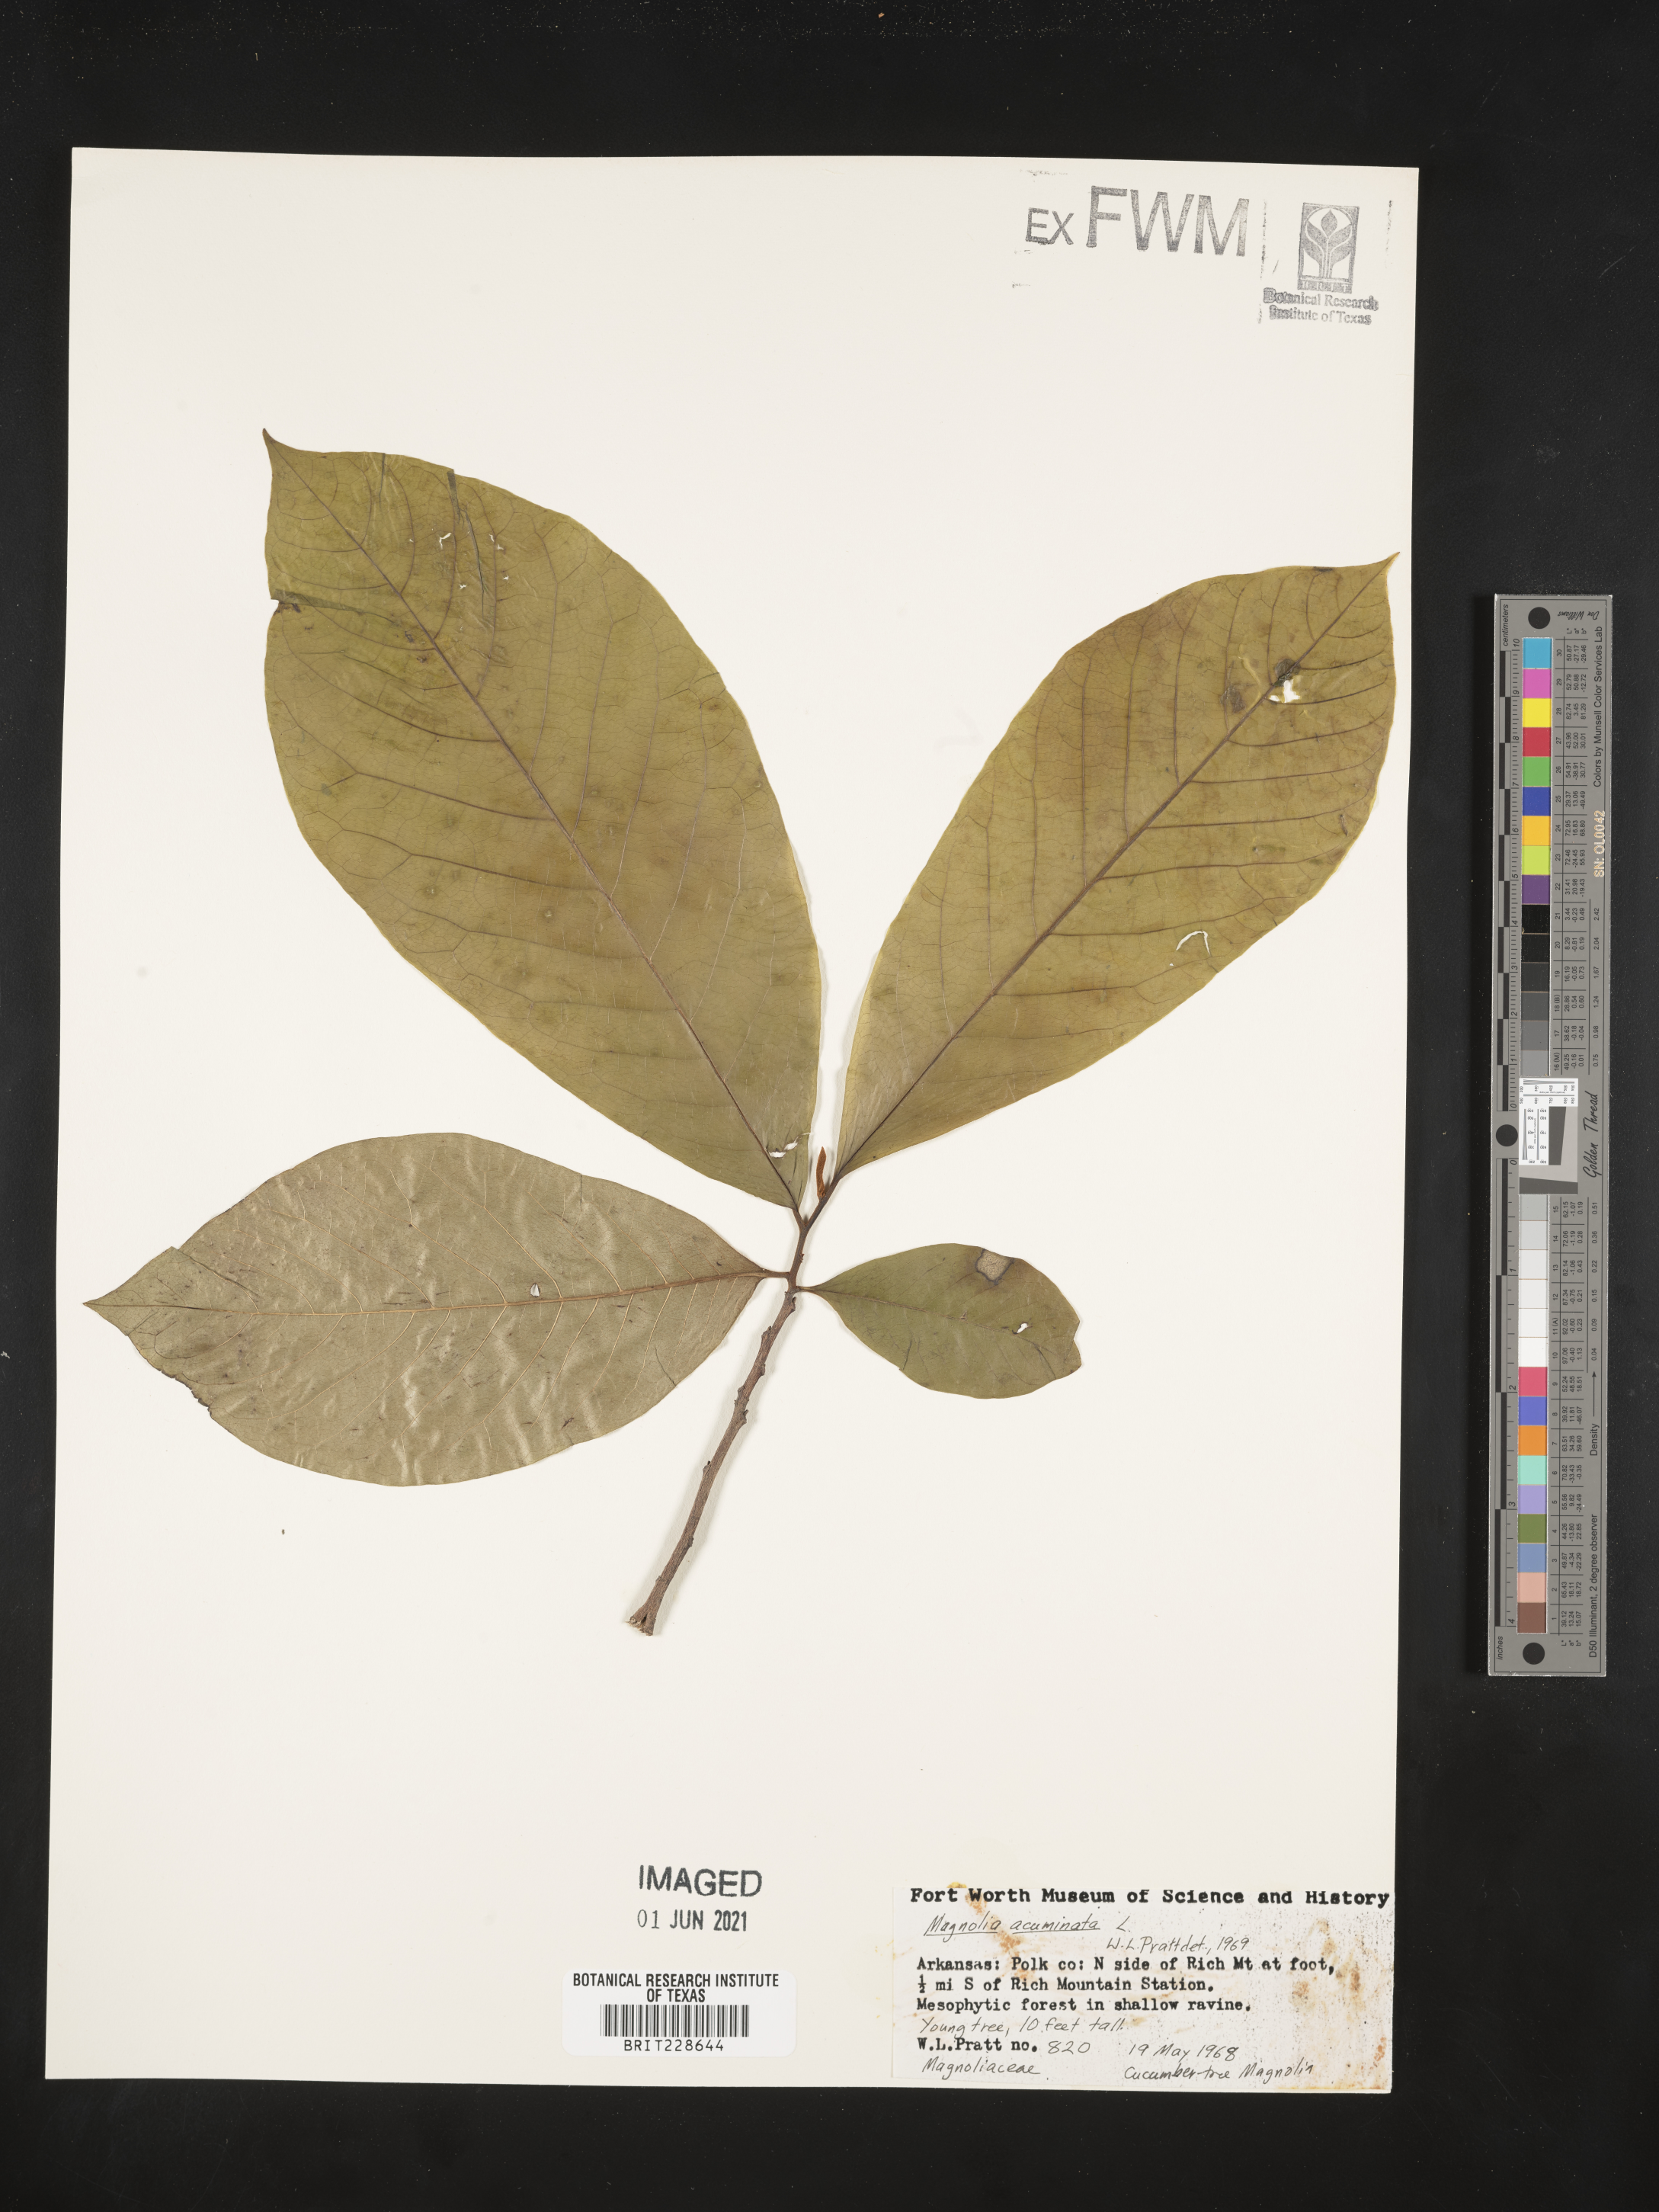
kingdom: Plantae
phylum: Tracheophyta
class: Magnoliopsida
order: Magnoliales
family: Magnoliaceae
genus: Magnolia
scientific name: Magnolia acuminata
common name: Cucumber magnolia
